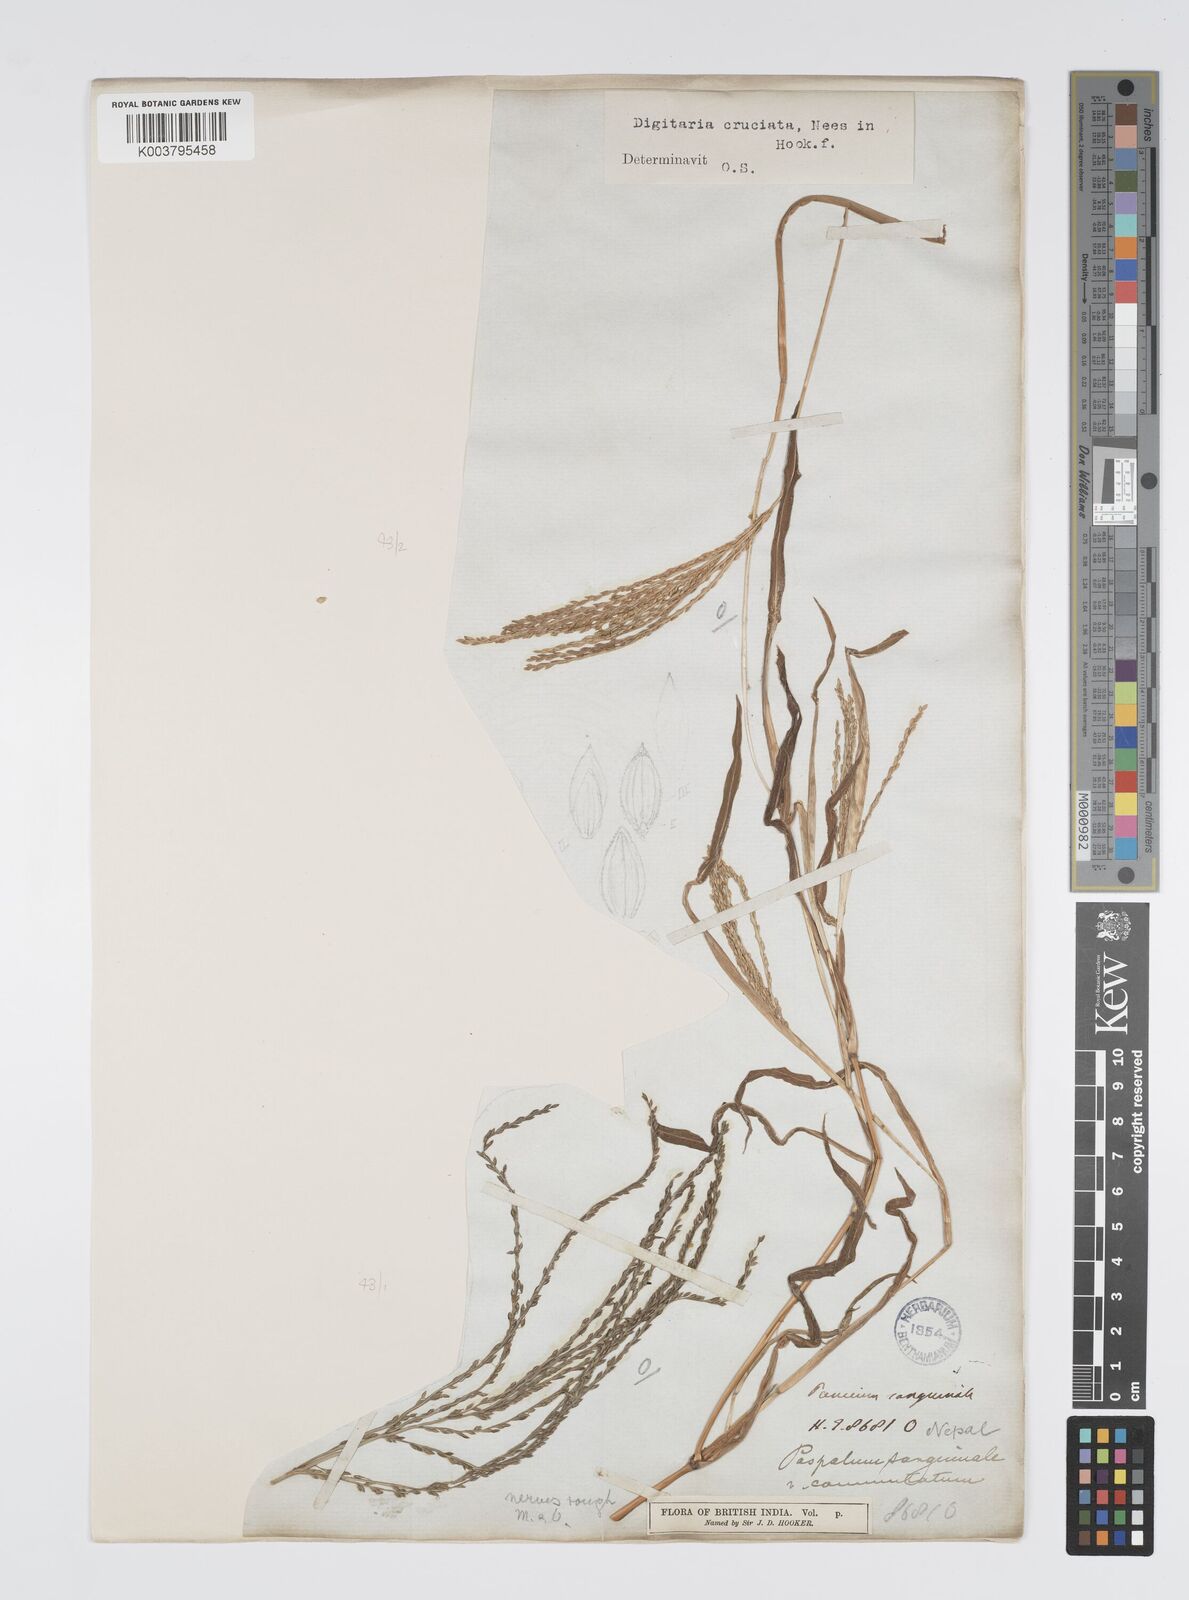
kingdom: Plantae
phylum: Tracheophyta
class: Liliopsida
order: Poales
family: Poaceae
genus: Digitaria
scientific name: Digitaria cruciata
